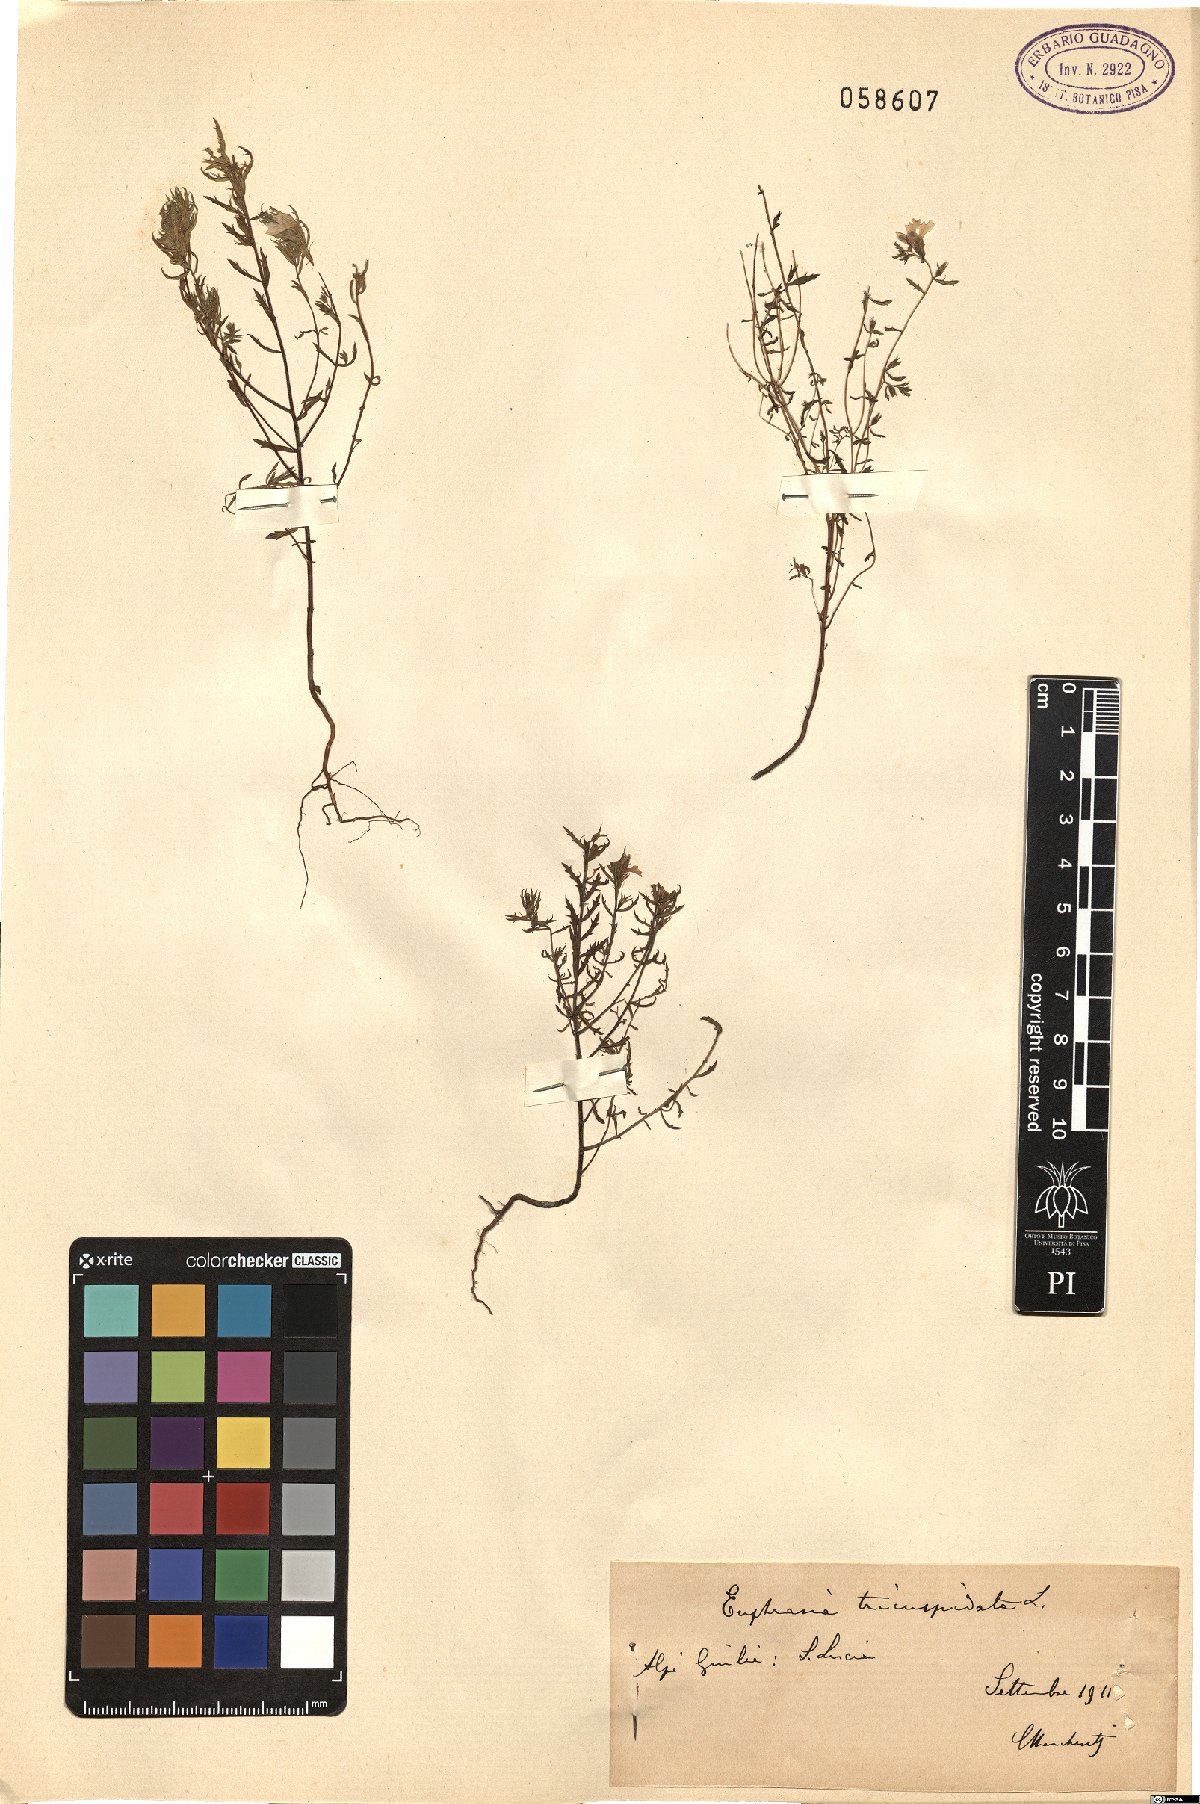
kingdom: Plantae
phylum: Tracheophyta
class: Magnoliopsida
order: Lamiales
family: Orobanchaceae
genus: Euphrasia
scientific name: Euphrasia tricuspidata
